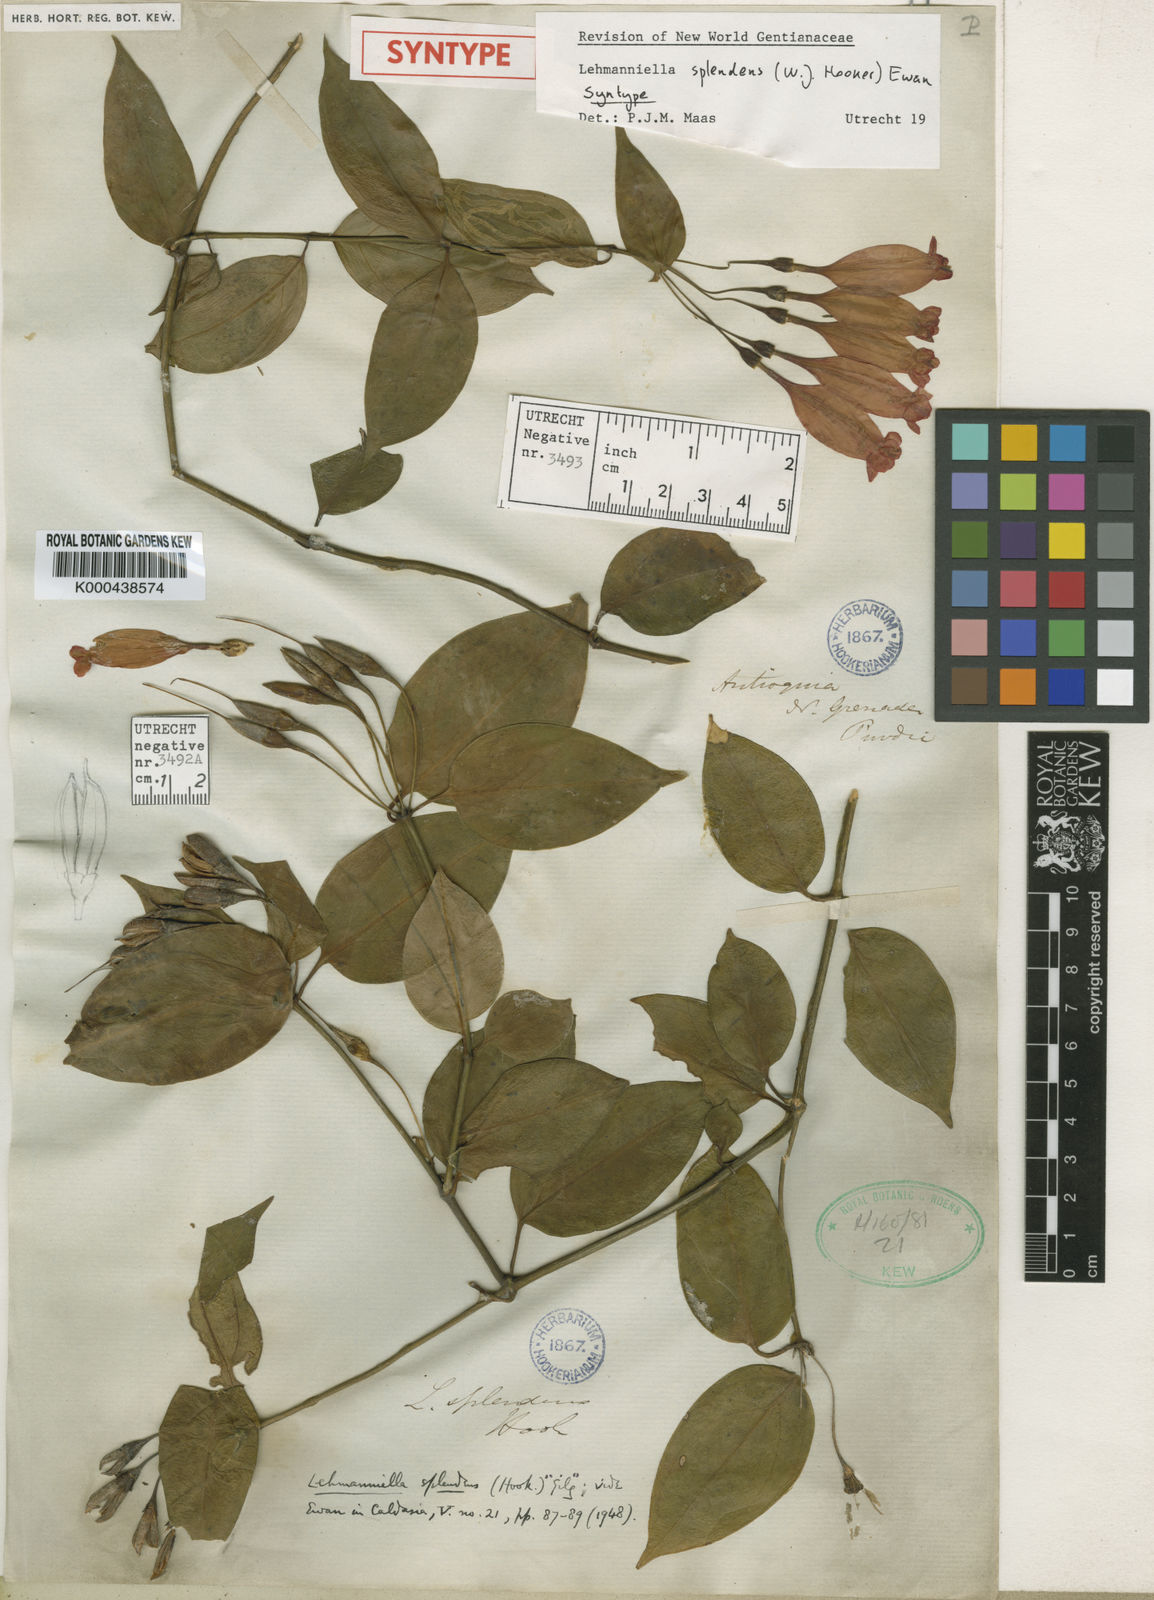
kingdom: Plantae
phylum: Tracheophyta
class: Magnoliopsida
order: Gentianales
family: Gentianaceae
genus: Lehmanniella
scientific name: Lehmanniella splendens
